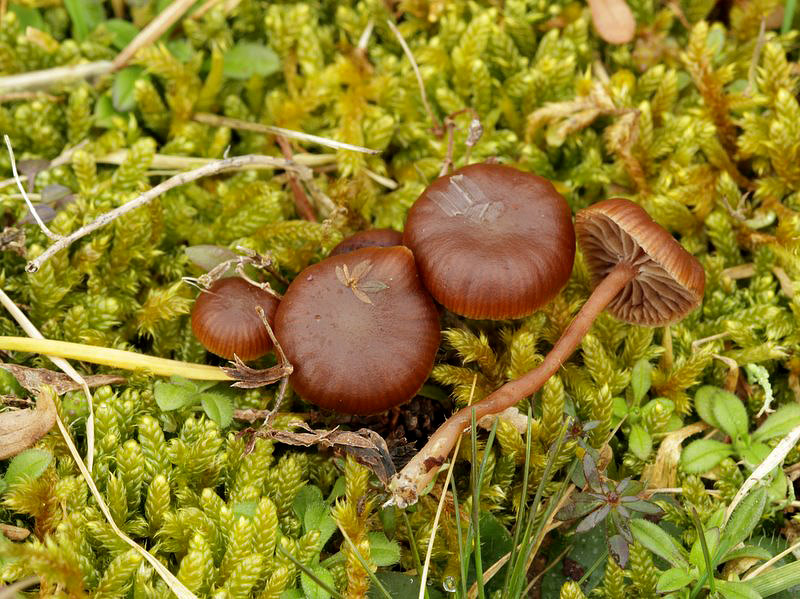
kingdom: Fungi
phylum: Basidiomycota
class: Agaricomycetes
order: Agaricales
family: Strophariaceae
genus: Deconica
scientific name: Deconica montana
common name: rødbrun stråhat
